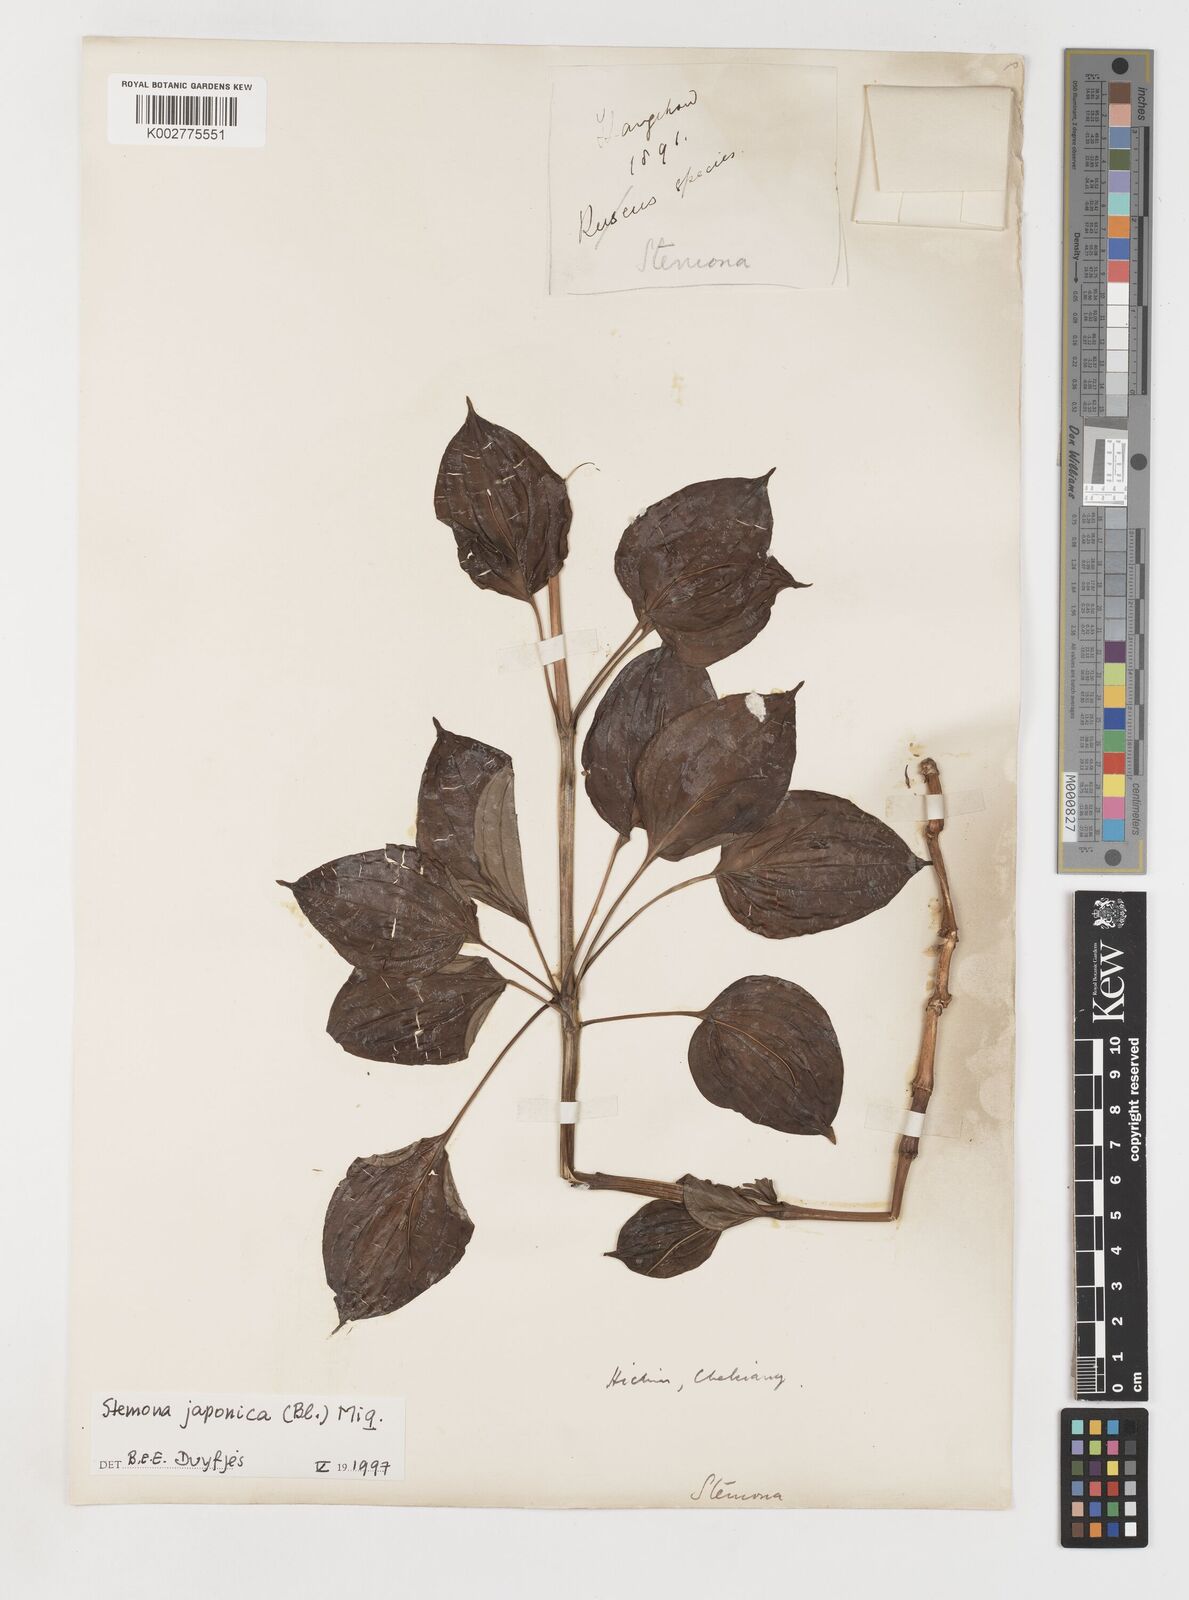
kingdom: Plantae
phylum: Tracheophyta
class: Liliopsida
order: Pandanales
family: Stemonaceae
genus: Stemona
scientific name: Stemona japonica
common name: Stemona
